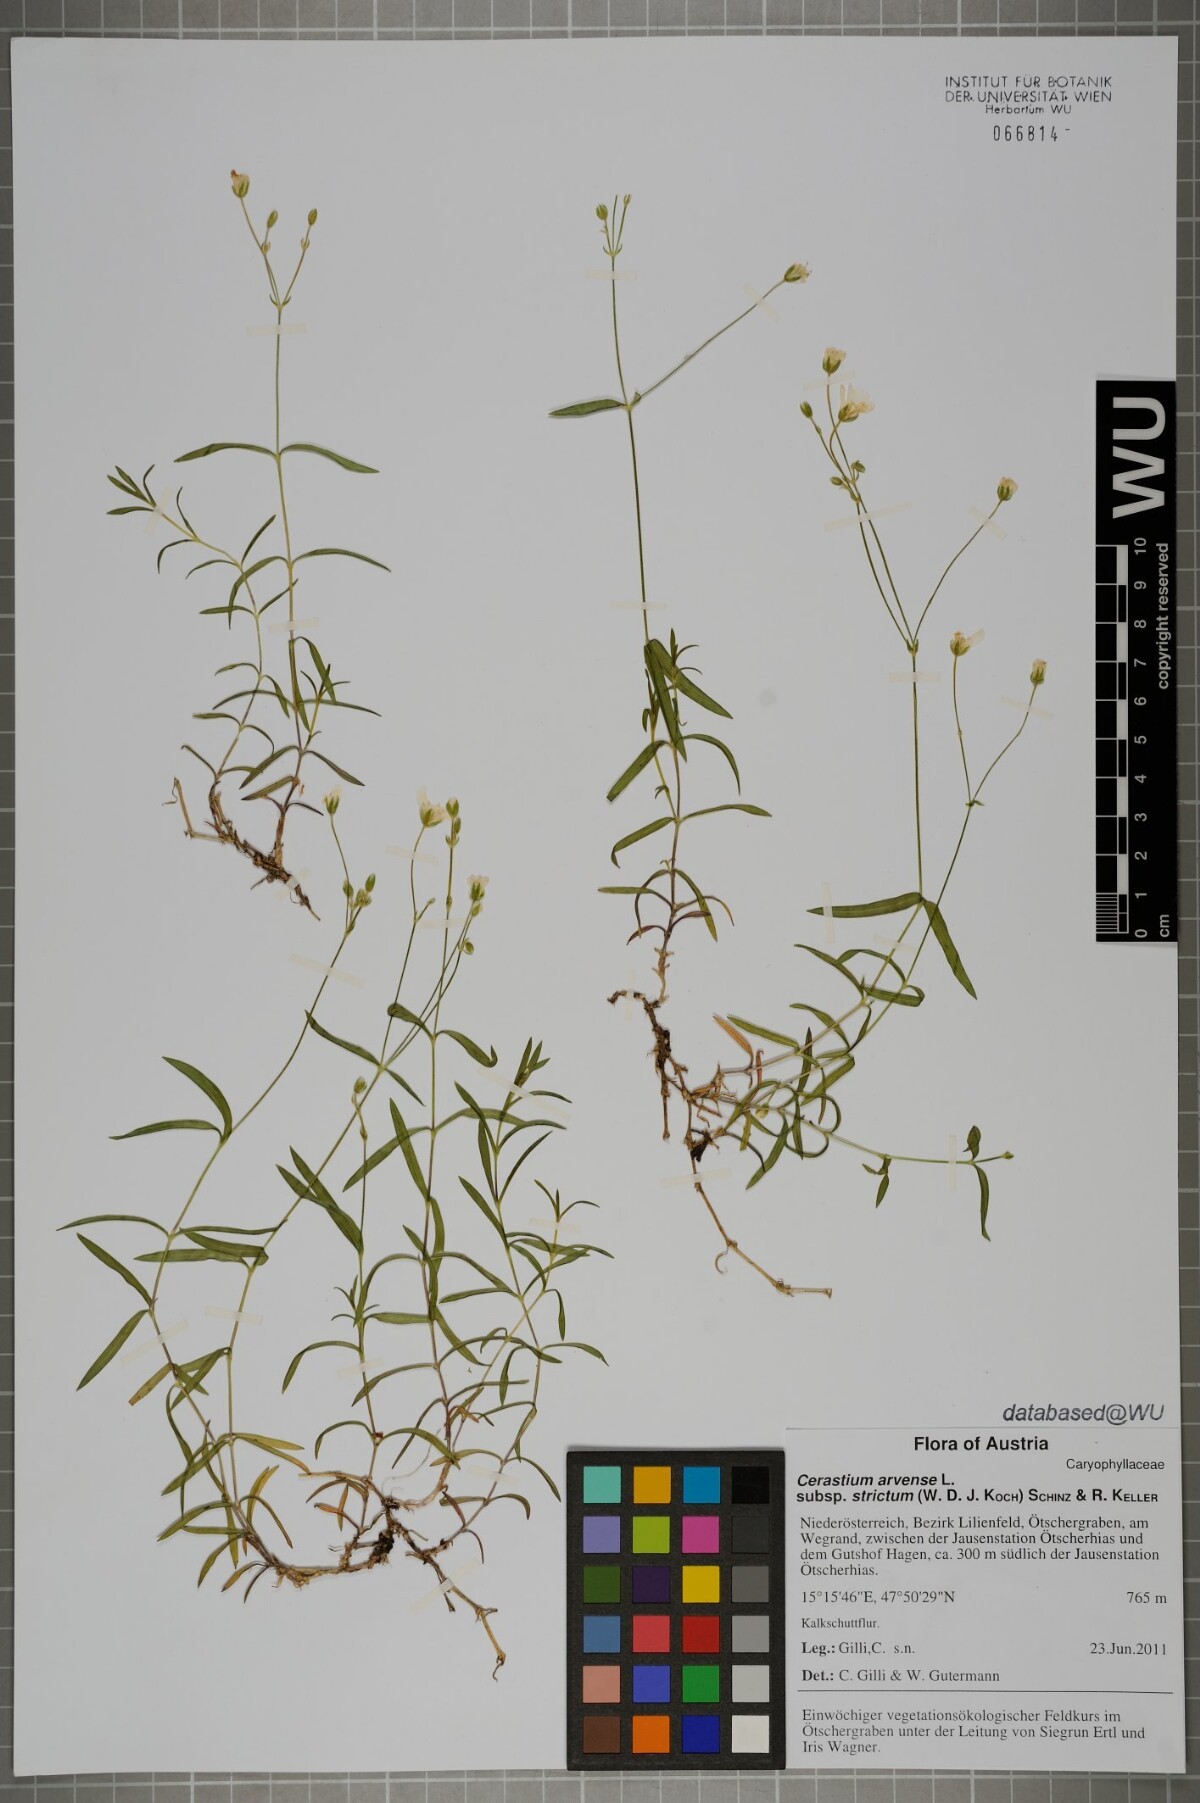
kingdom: Plantae
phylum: Tracheophyta
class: Magnoliopsida
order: Caryophyllales
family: Caryophyllaceae
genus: Cerastium
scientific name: Cerastium elongatum
